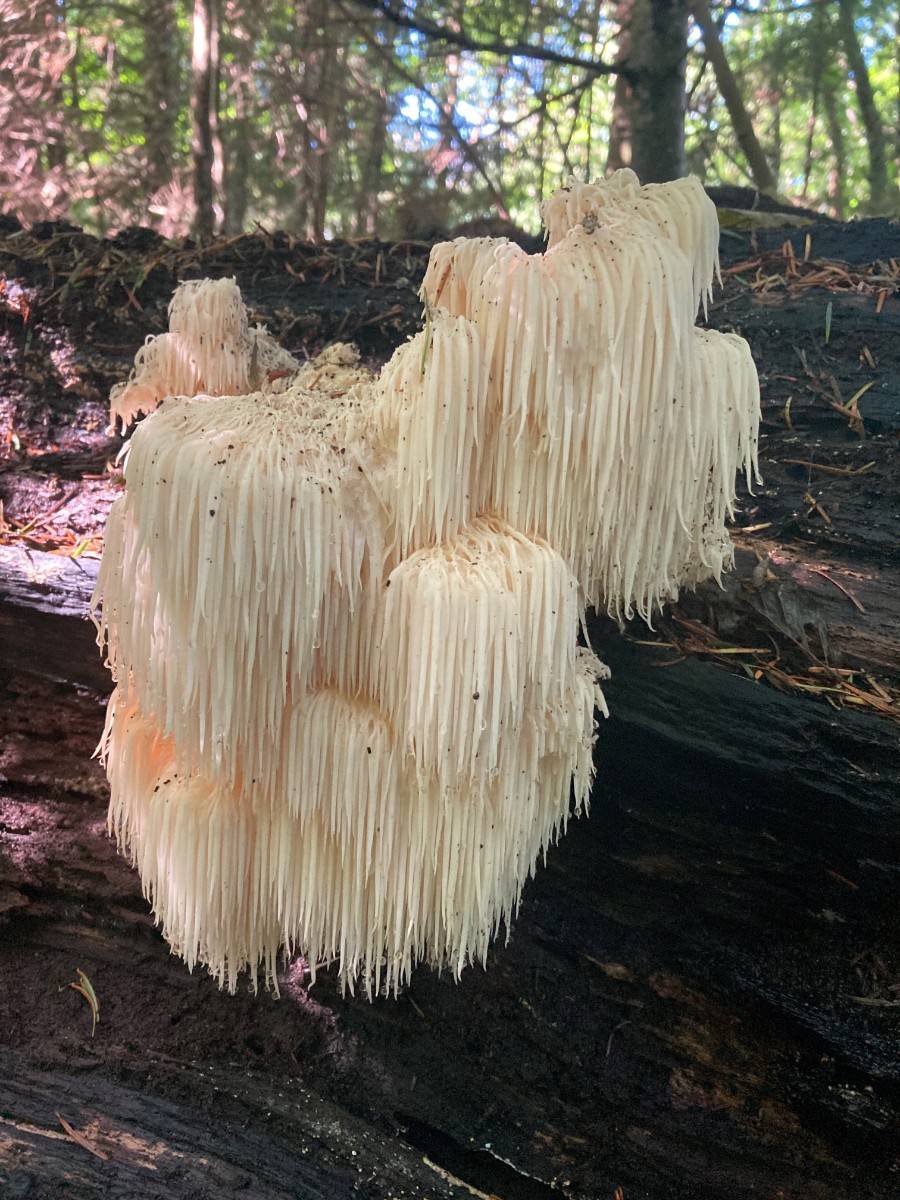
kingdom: Fungi
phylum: Basidiomycota
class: Agaricomycetes
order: Russulales
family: Hericiaceae
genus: Hericium
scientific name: Hericium erinaceus
